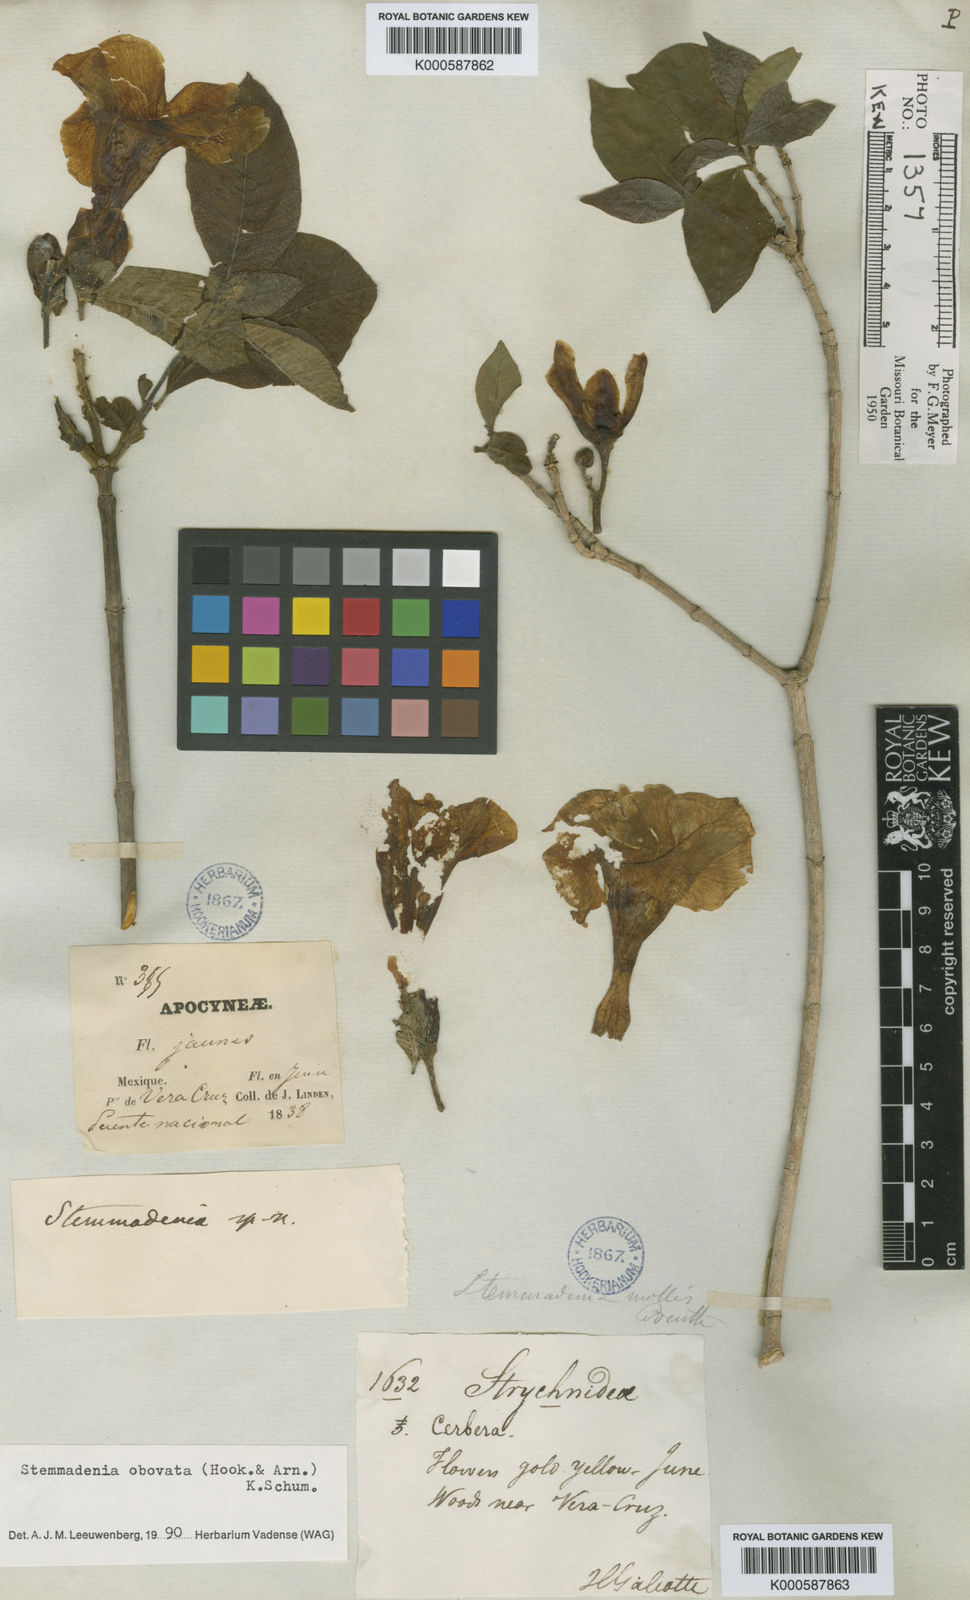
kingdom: Plantae
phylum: Tracheophyta
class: Magnoliopsida
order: Gentianales
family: Apocynaceae
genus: Tabernaemontana
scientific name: Tabernaemontana glabra
